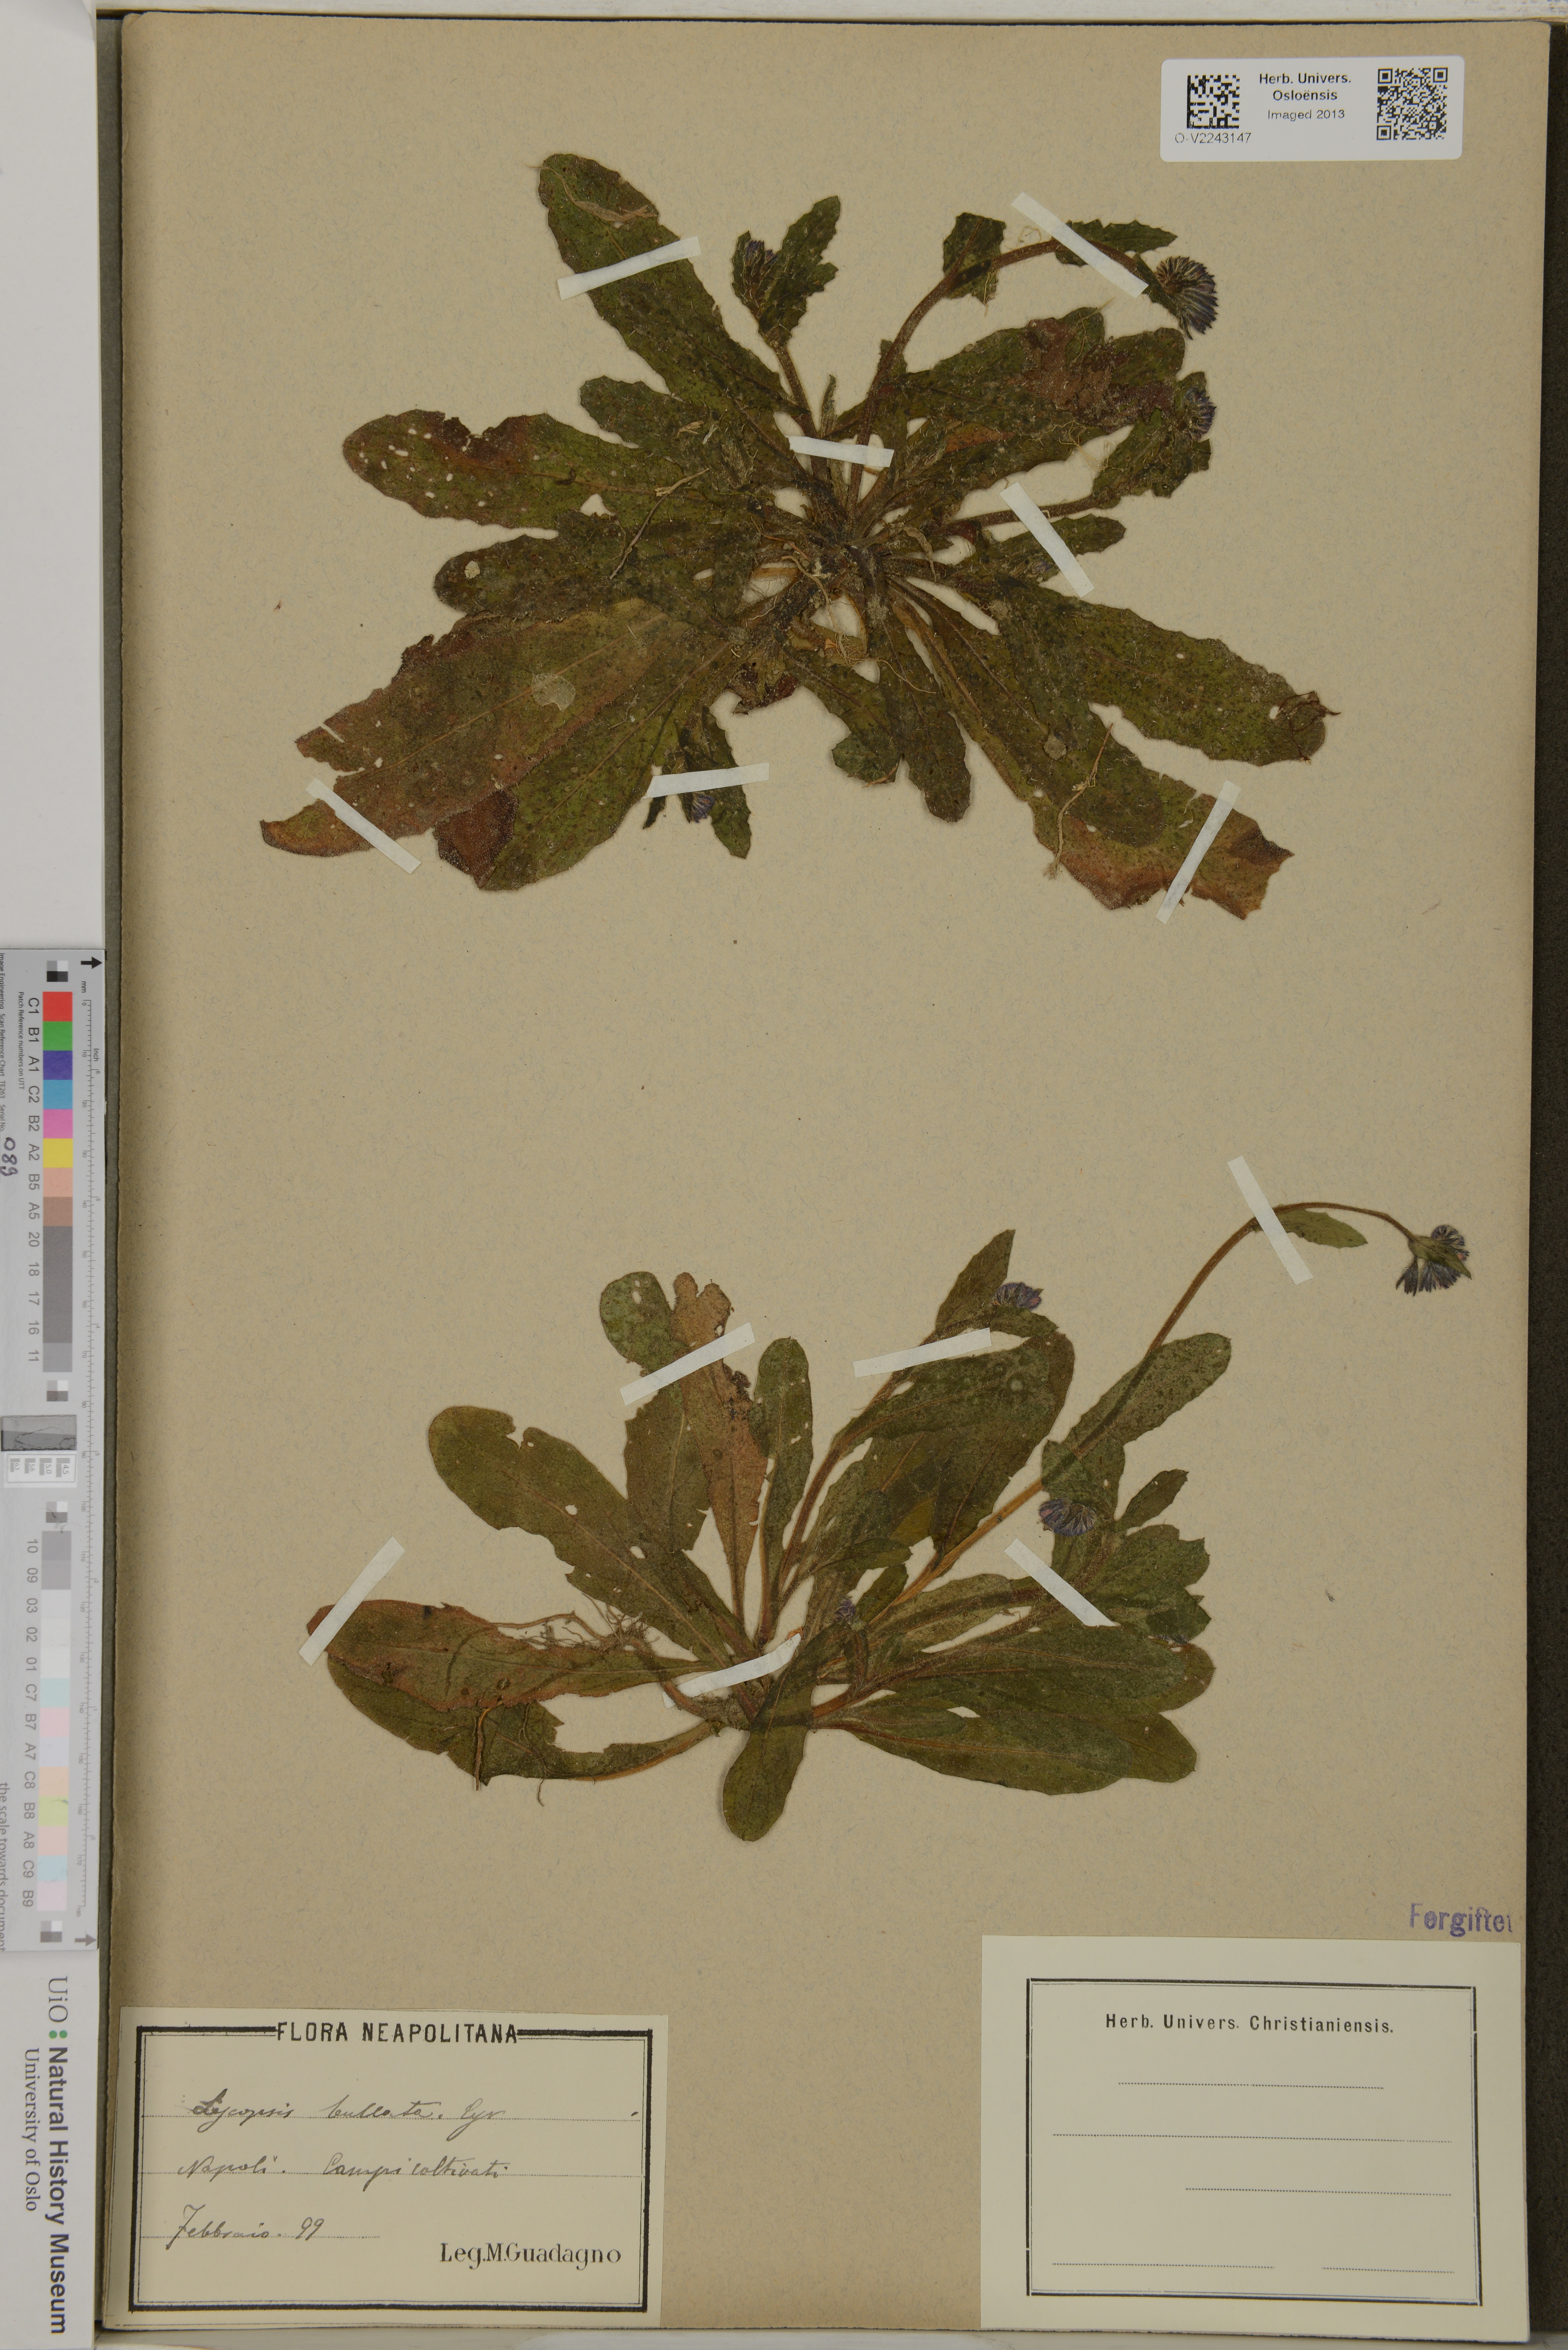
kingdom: Plantae
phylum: Tracheophyta
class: Magnoliopsida
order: Boraginales
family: Boraginaceae
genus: Anchusella
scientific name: Anchusella variegata
